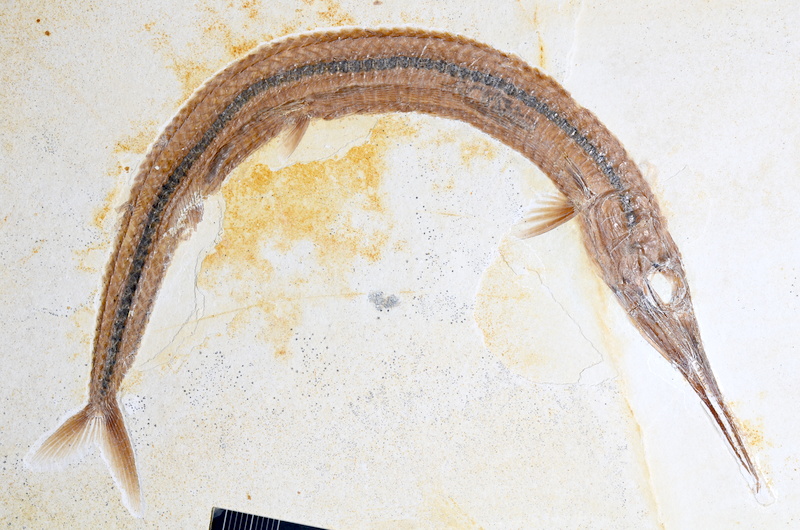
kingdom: Animalia
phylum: Chordata
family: Aspidorhynchidae
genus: Belonostomus
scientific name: Belonostomus kochii
